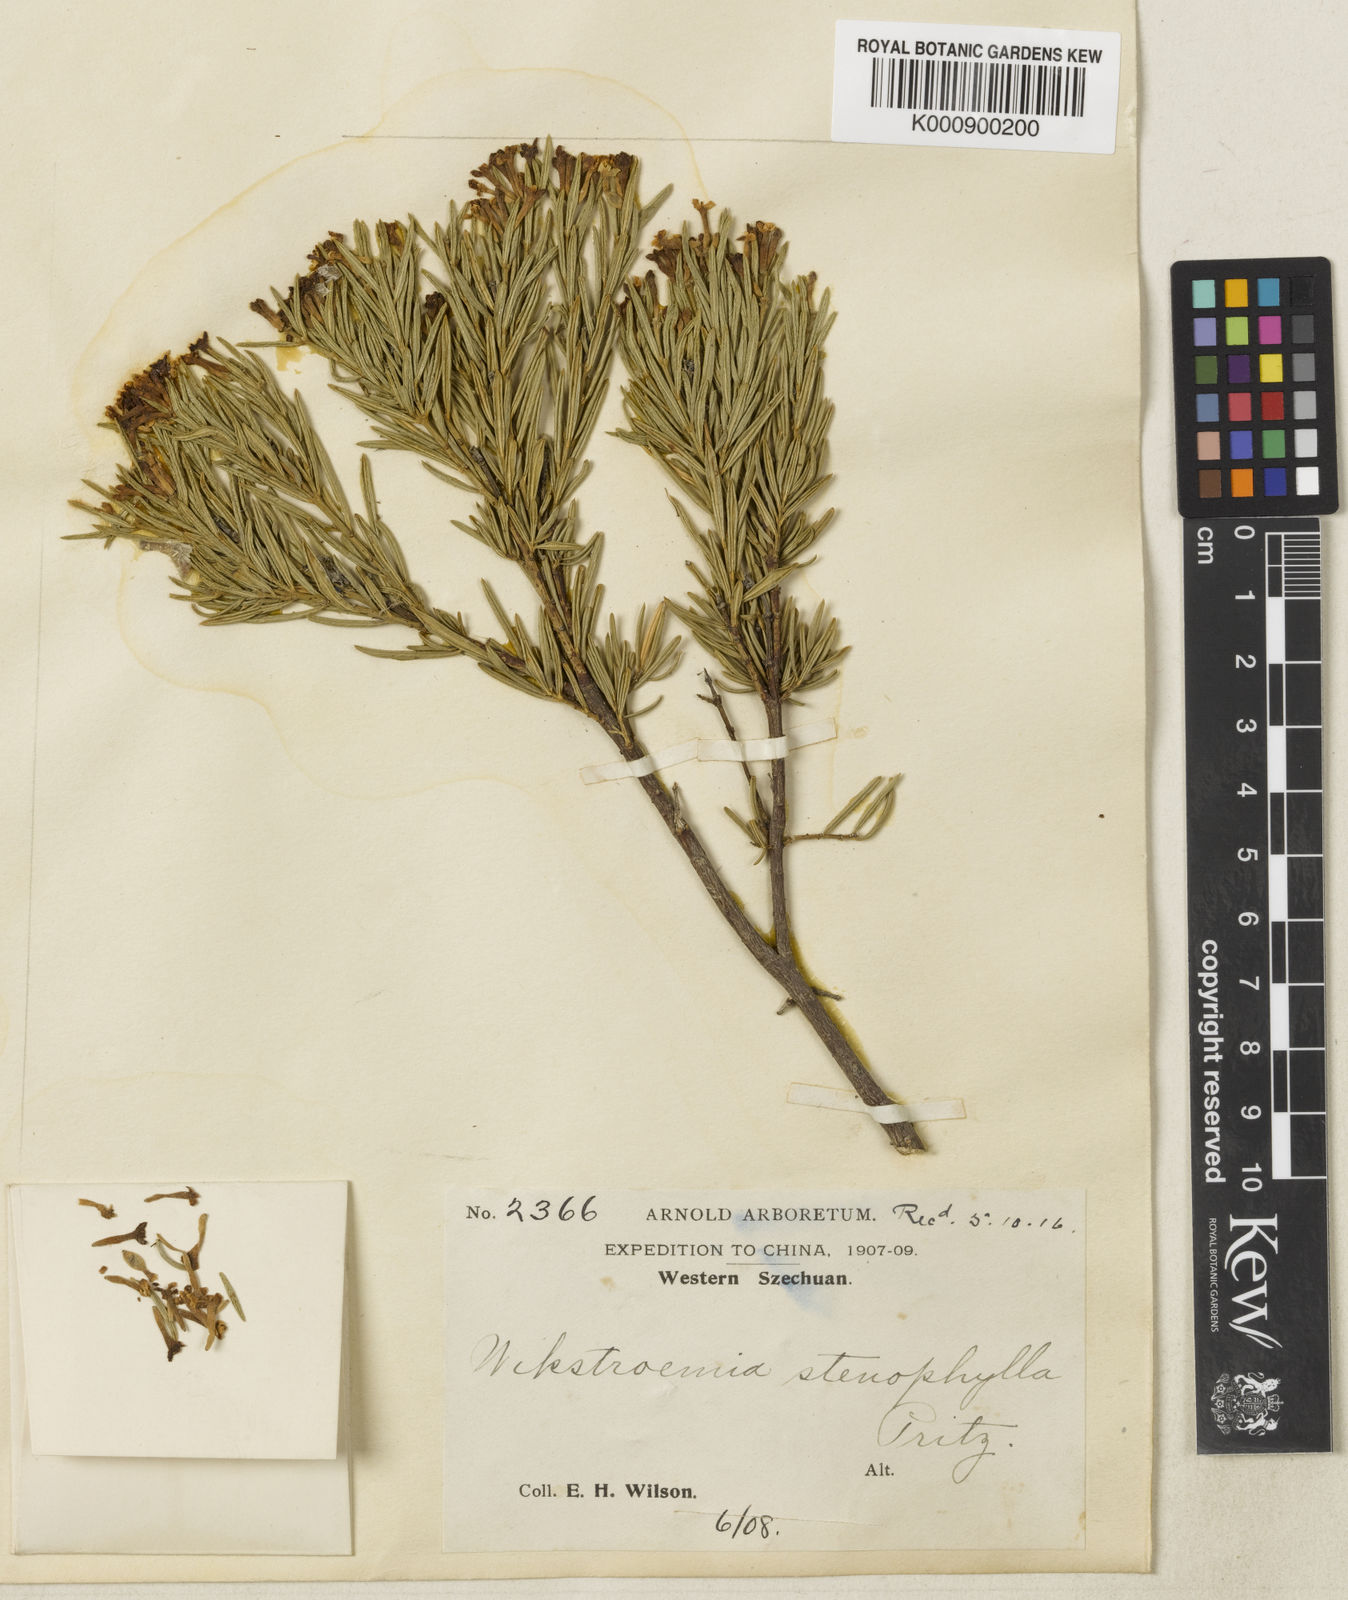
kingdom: Plantae
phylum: Tracheophyta
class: Magnoliopsida
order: Malvales
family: Thymelaeaceae
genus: Wikstroemia
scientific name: Wikstroemia stenophylla
